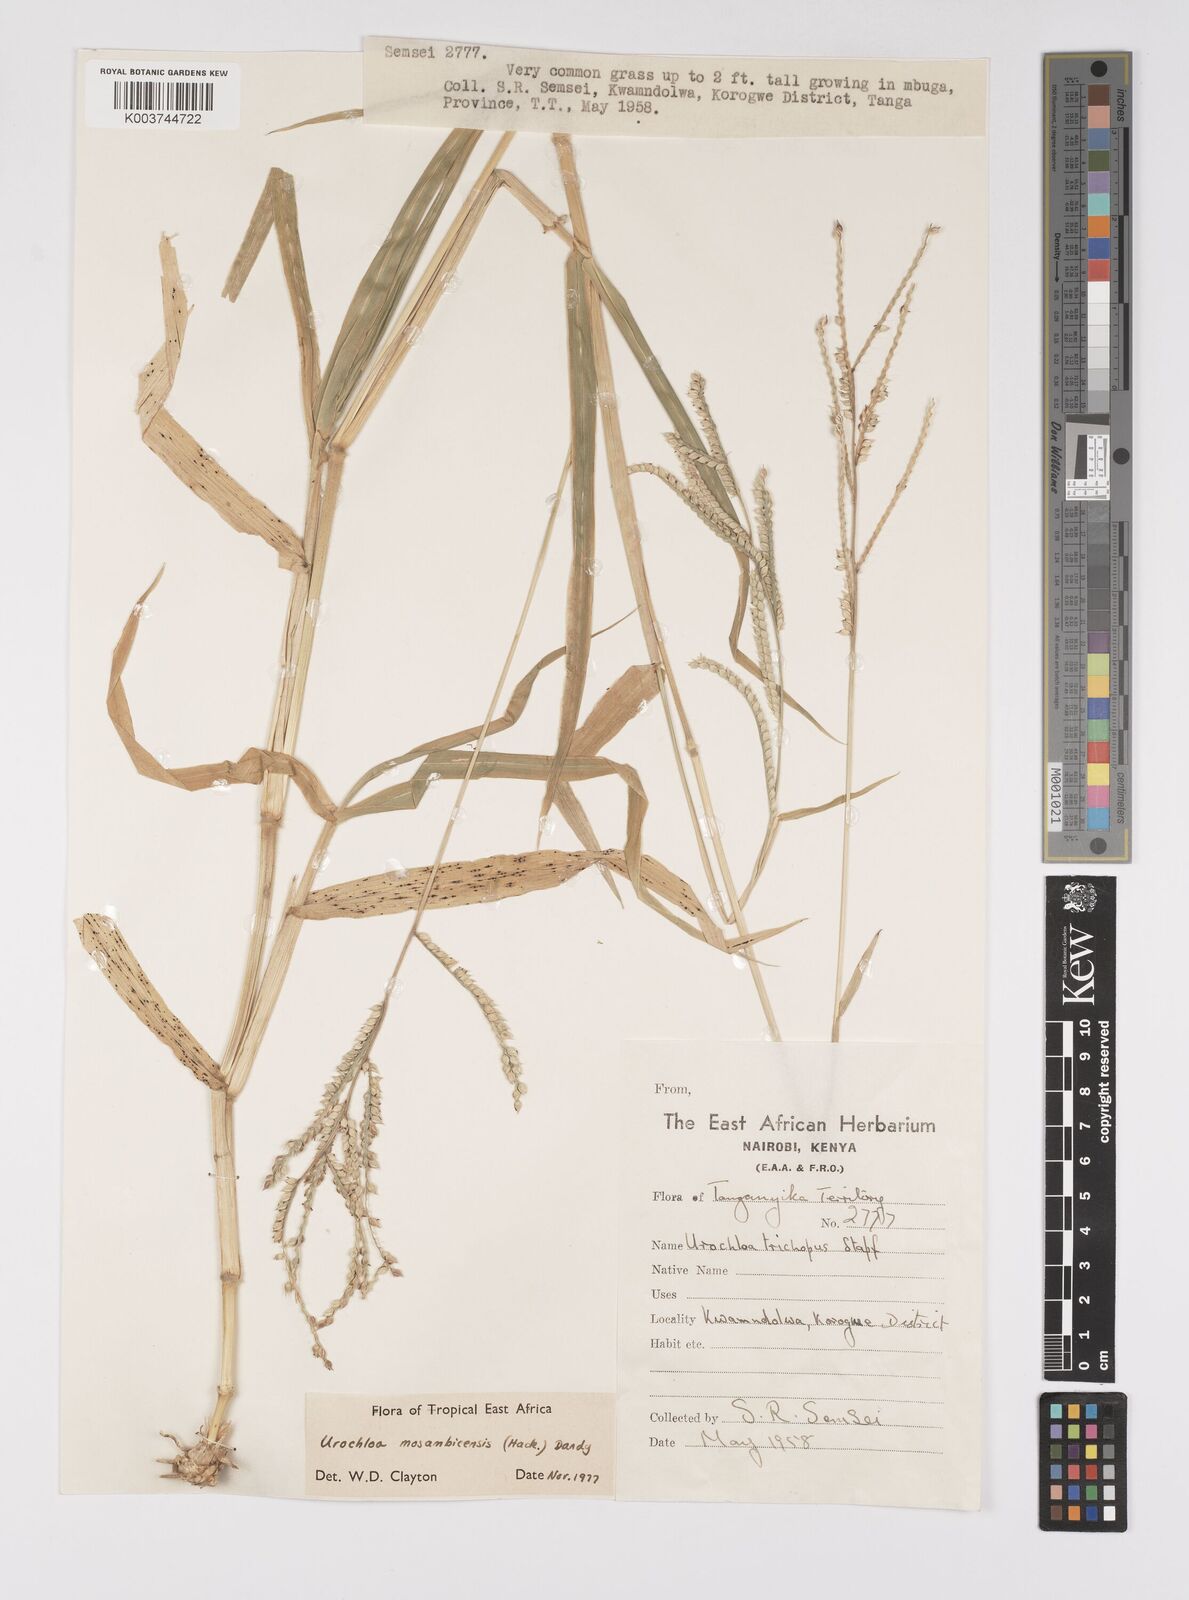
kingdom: Plantae
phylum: Tracheophyta
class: Liliopsida
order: Poales
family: Poaceae
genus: Urochloa
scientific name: Urochloa trichopus
